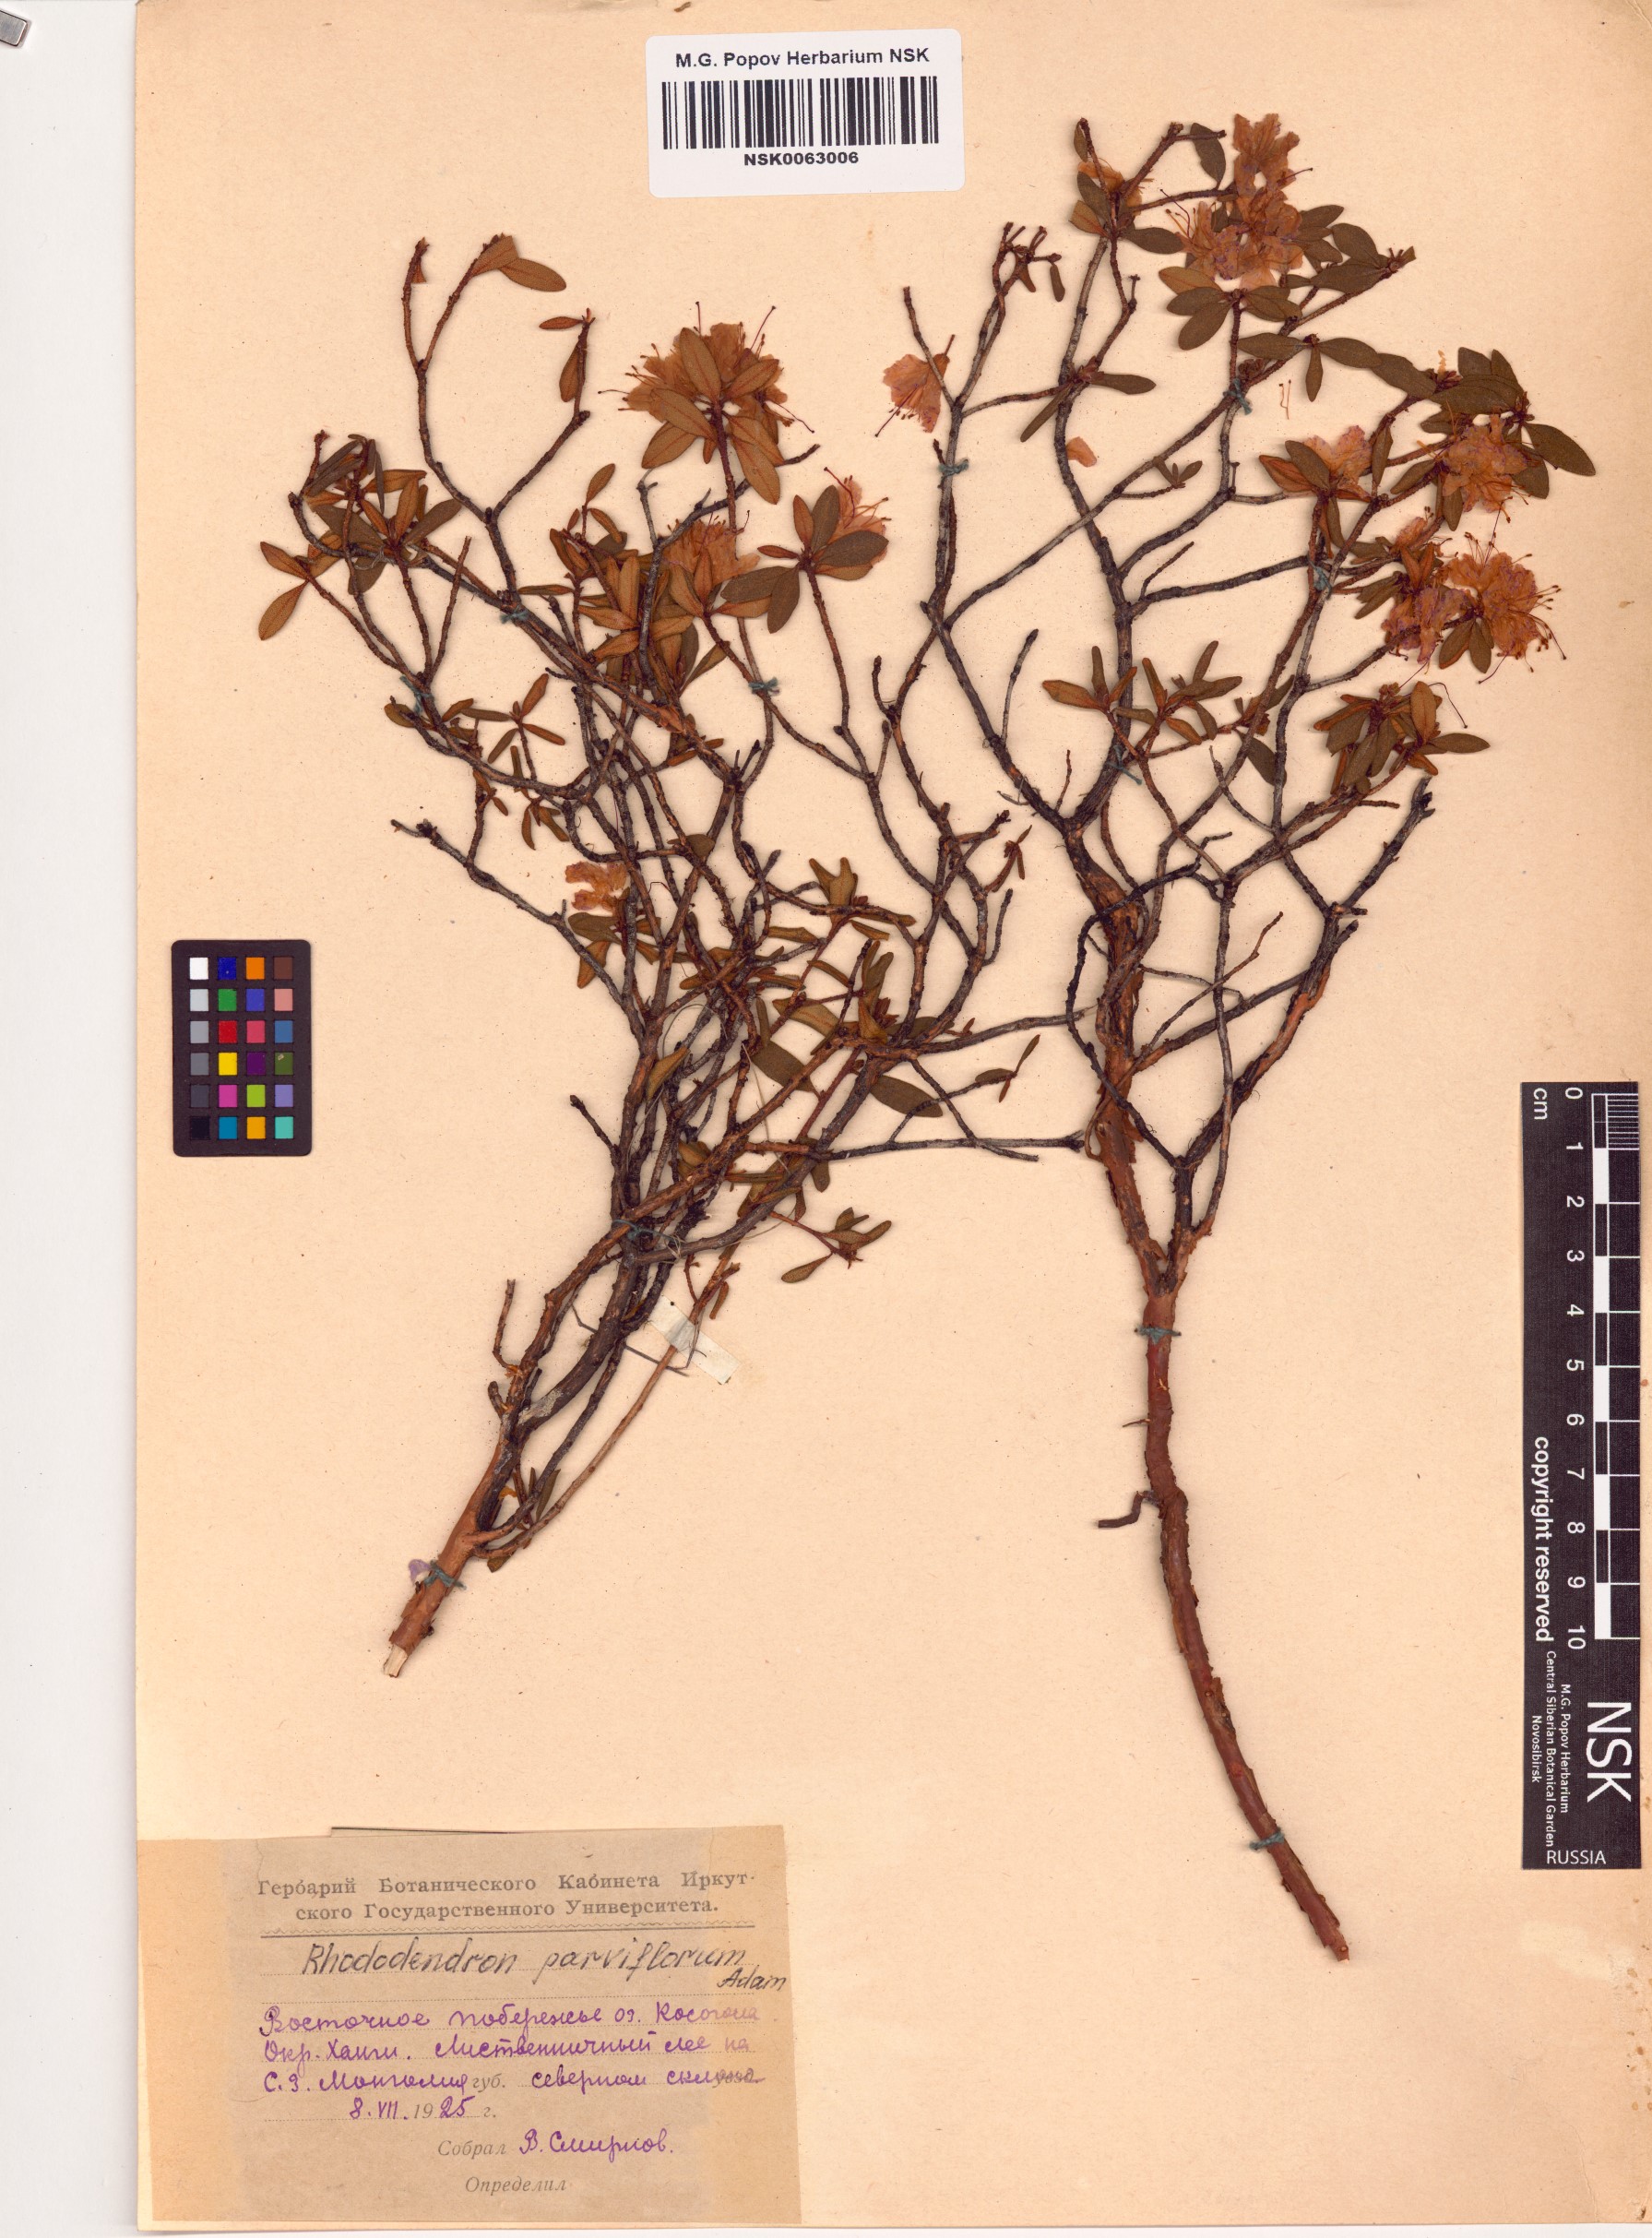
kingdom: Plantae
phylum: Tracheophyta
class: Magnoliopsida
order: Ericales
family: Ericaceae
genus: Rhododendron
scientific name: Rhododendron parvifolium
